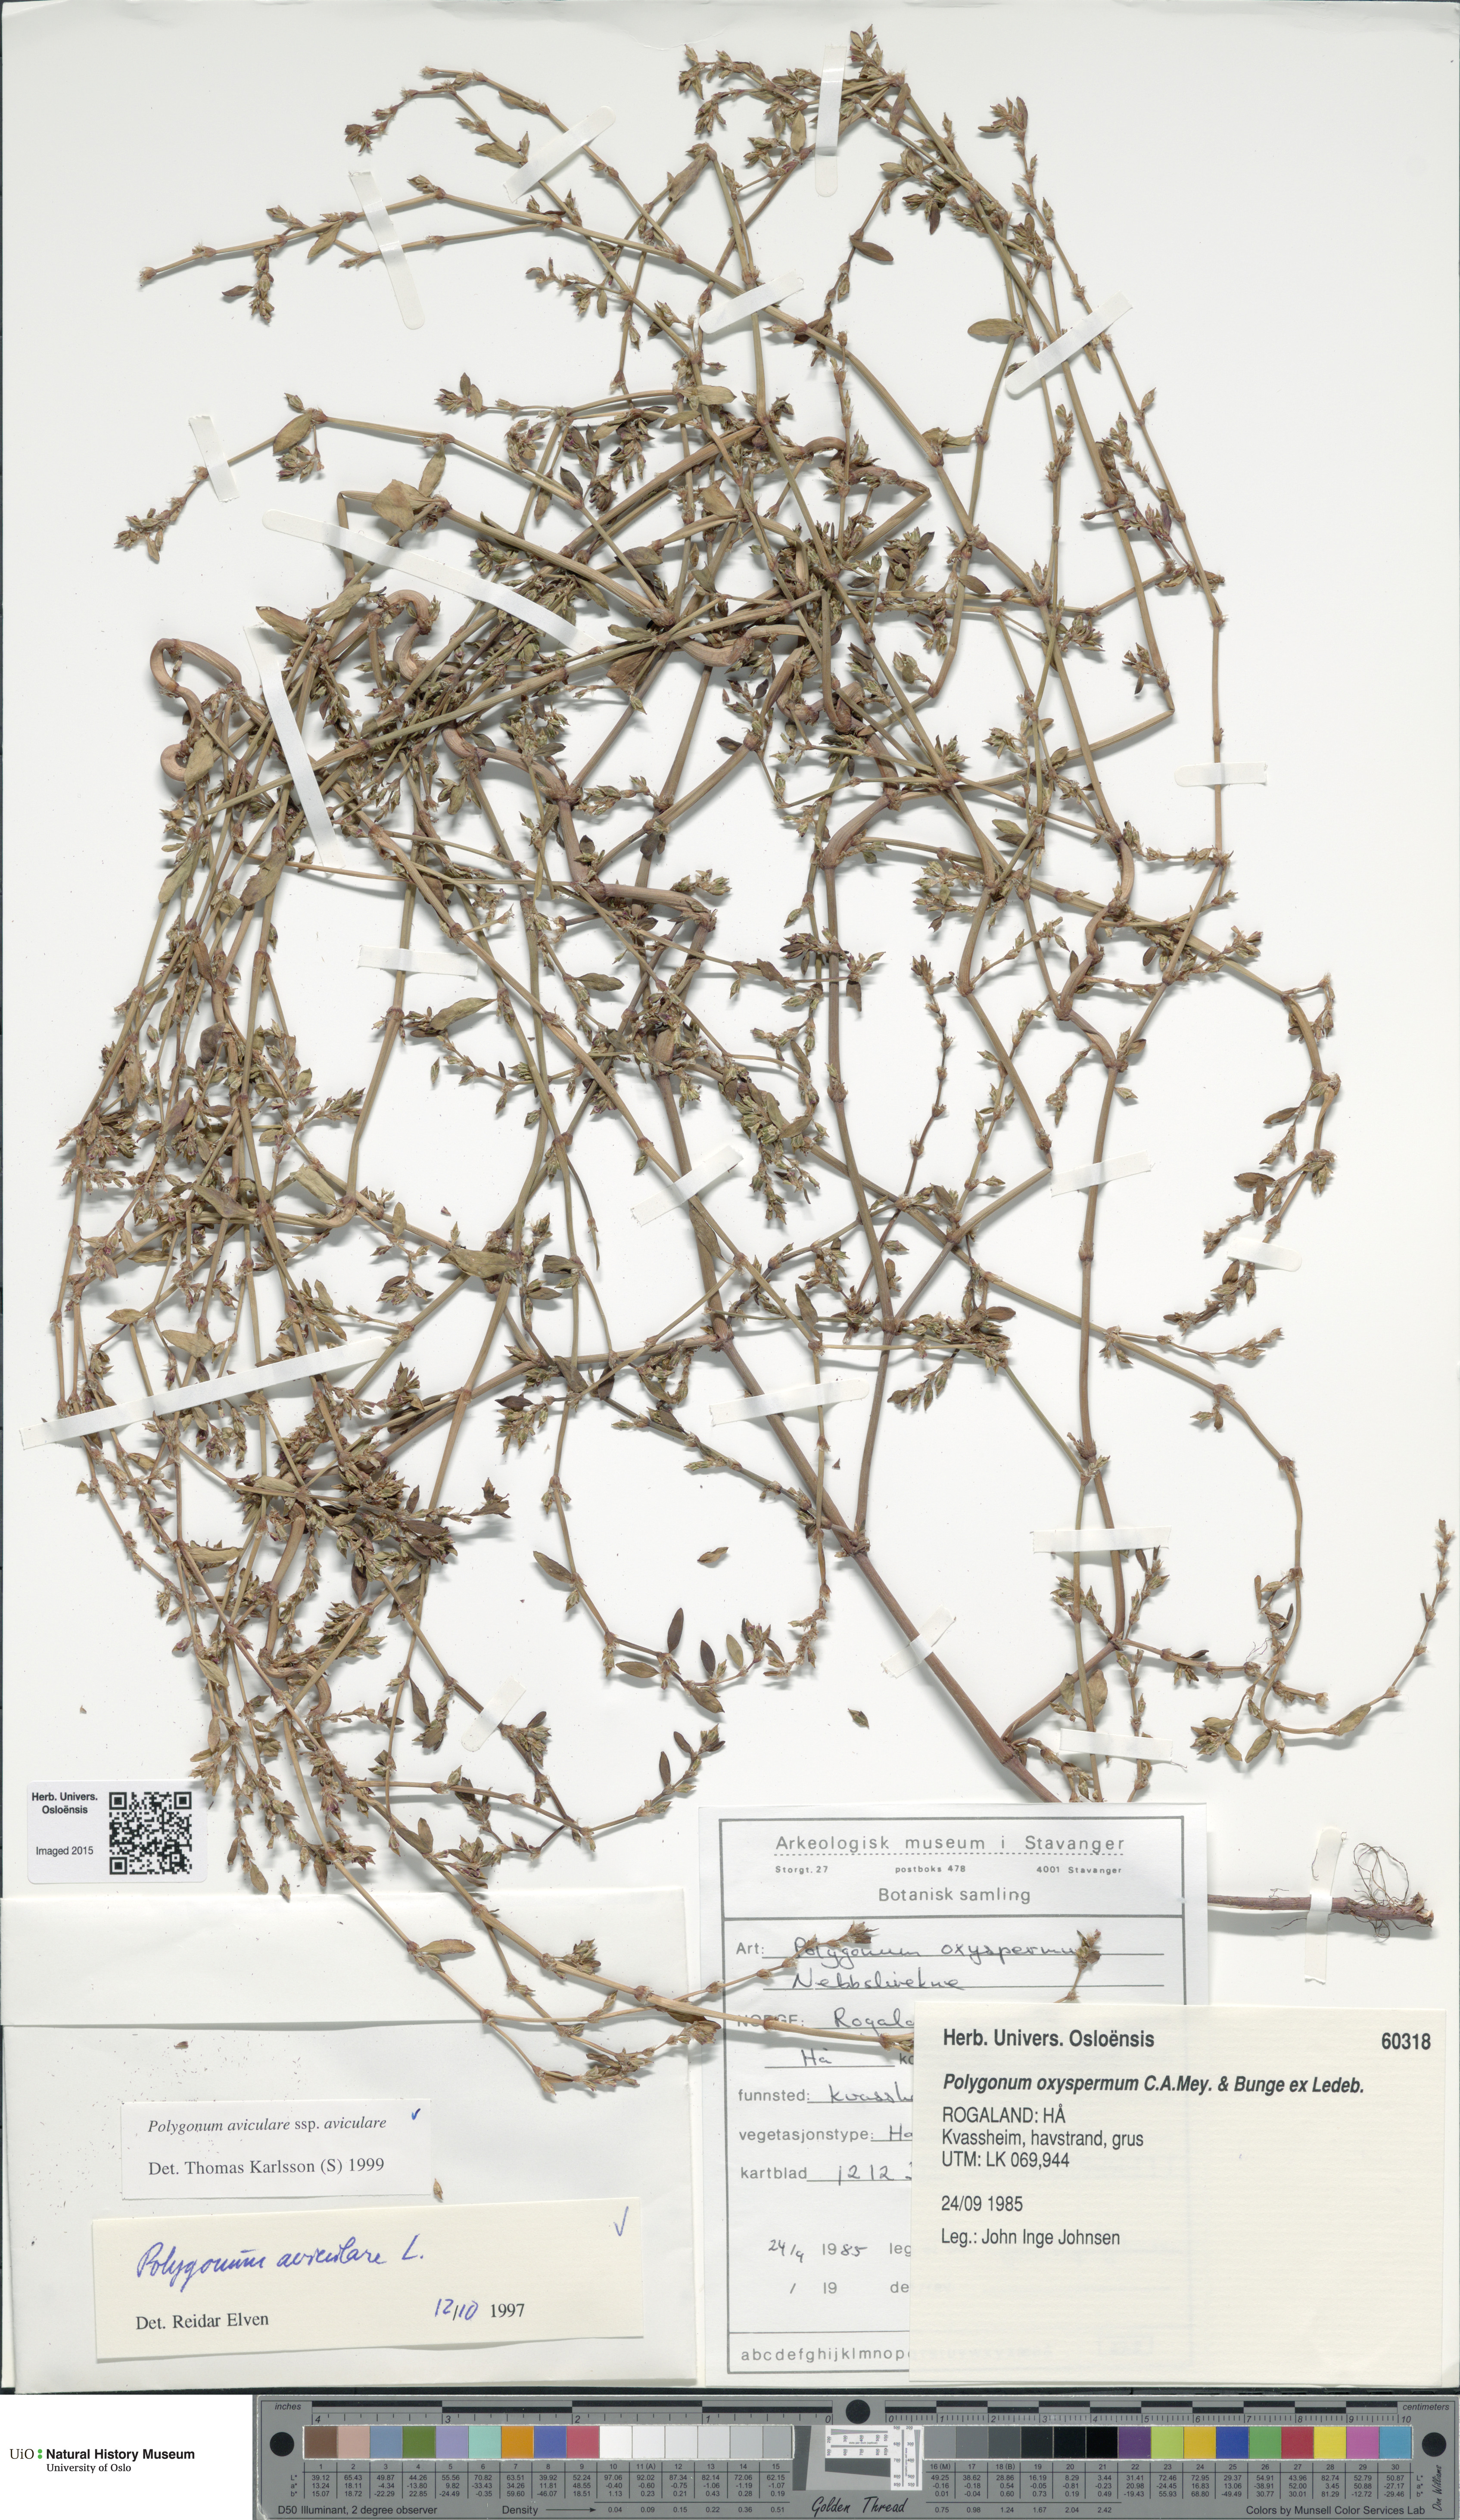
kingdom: Plantae
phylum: Tracheophyta
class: Magnoliopsida
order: Caryophyllales
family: Polygonaceae
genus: Polygonum
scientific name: Polygonum aviculare
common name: Prostrate knotweed
